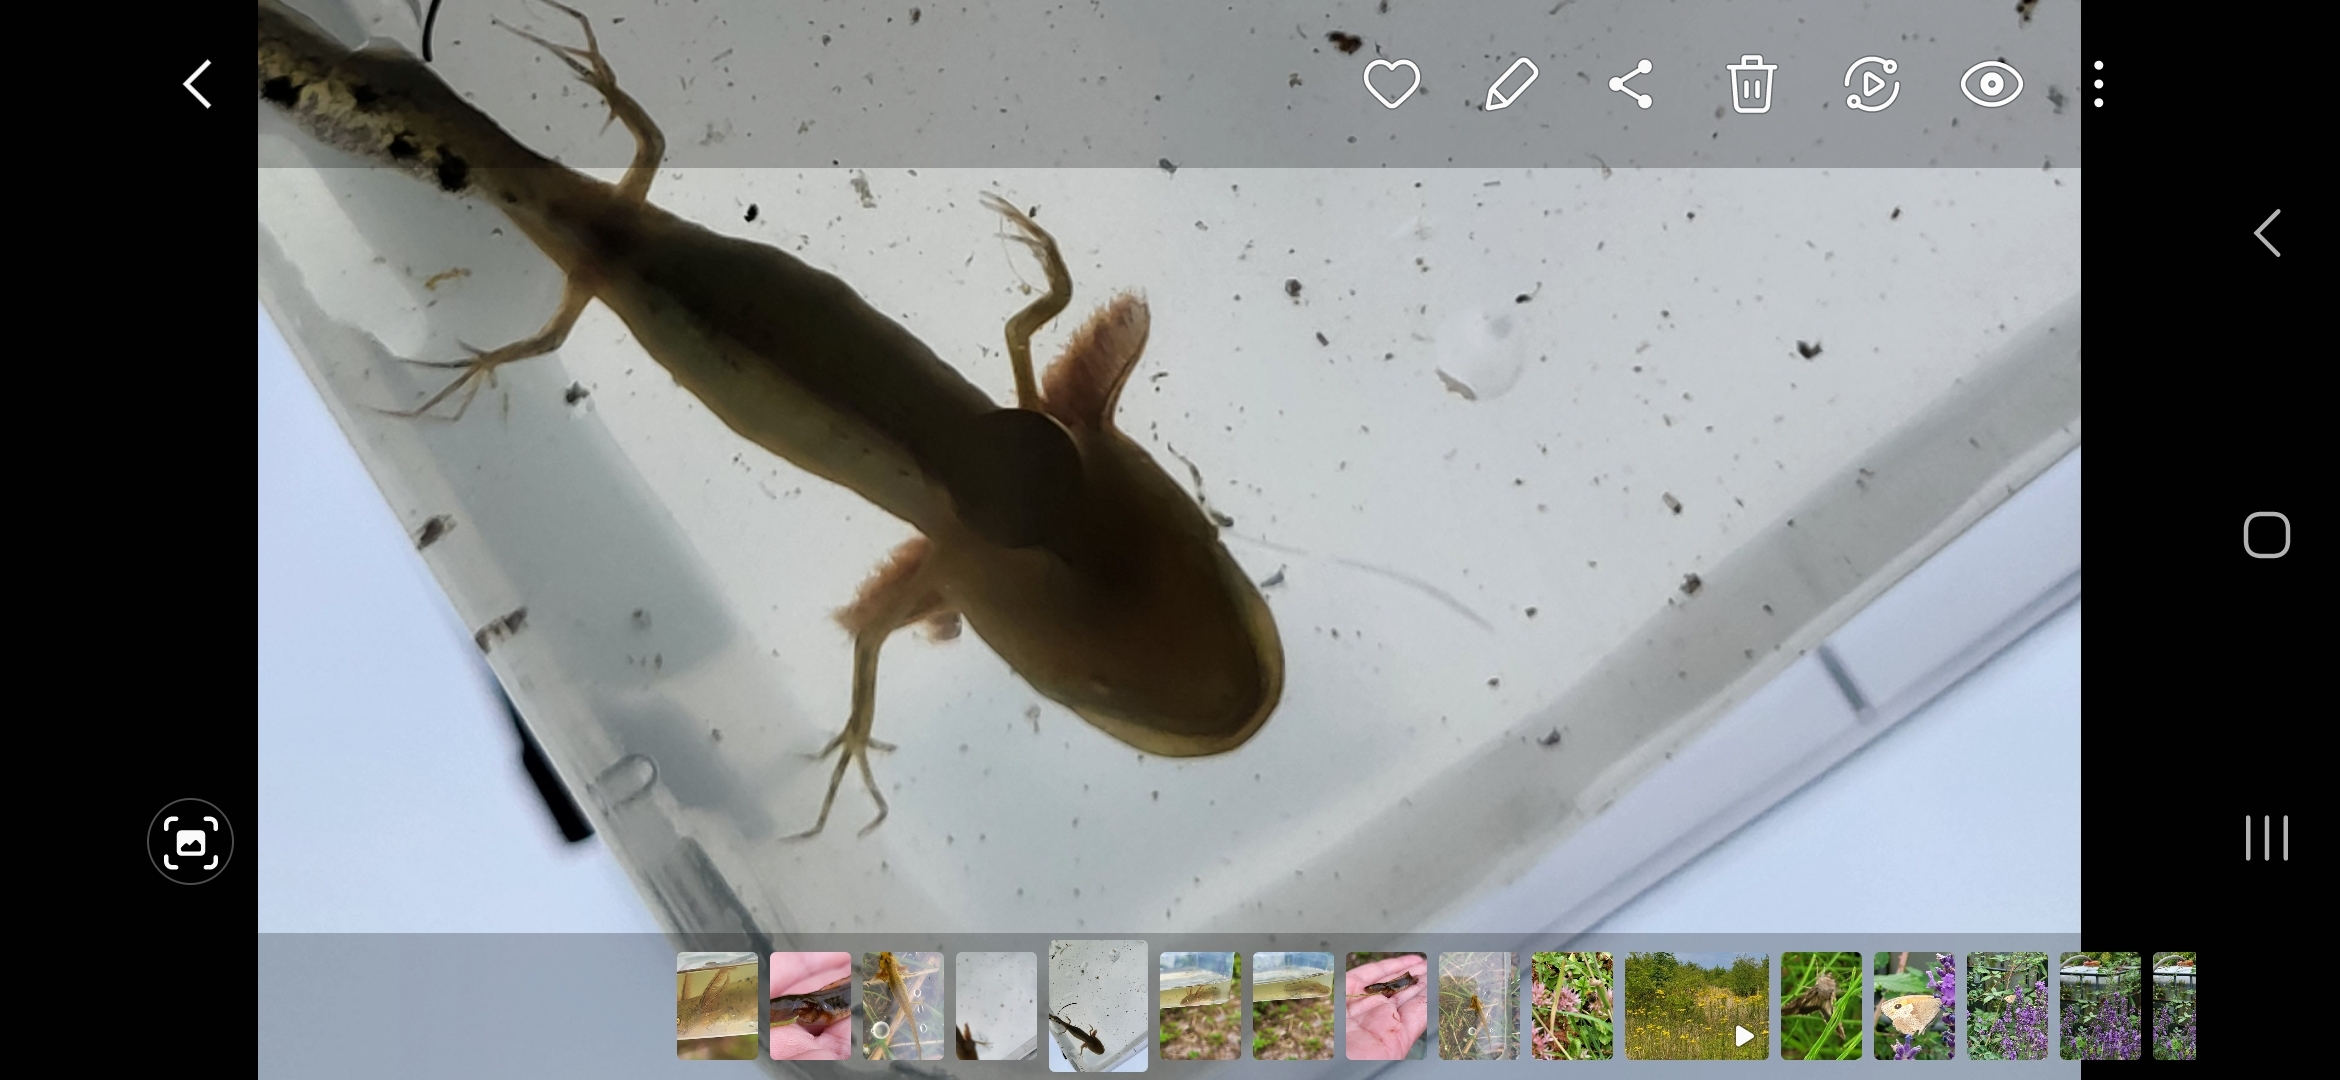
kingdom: Animalia
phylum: Chordata
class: Amphibia
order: Caudata
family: Salamandridae
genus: Triturus
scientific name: Triturus cristatus
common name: Stor vandsalamander
